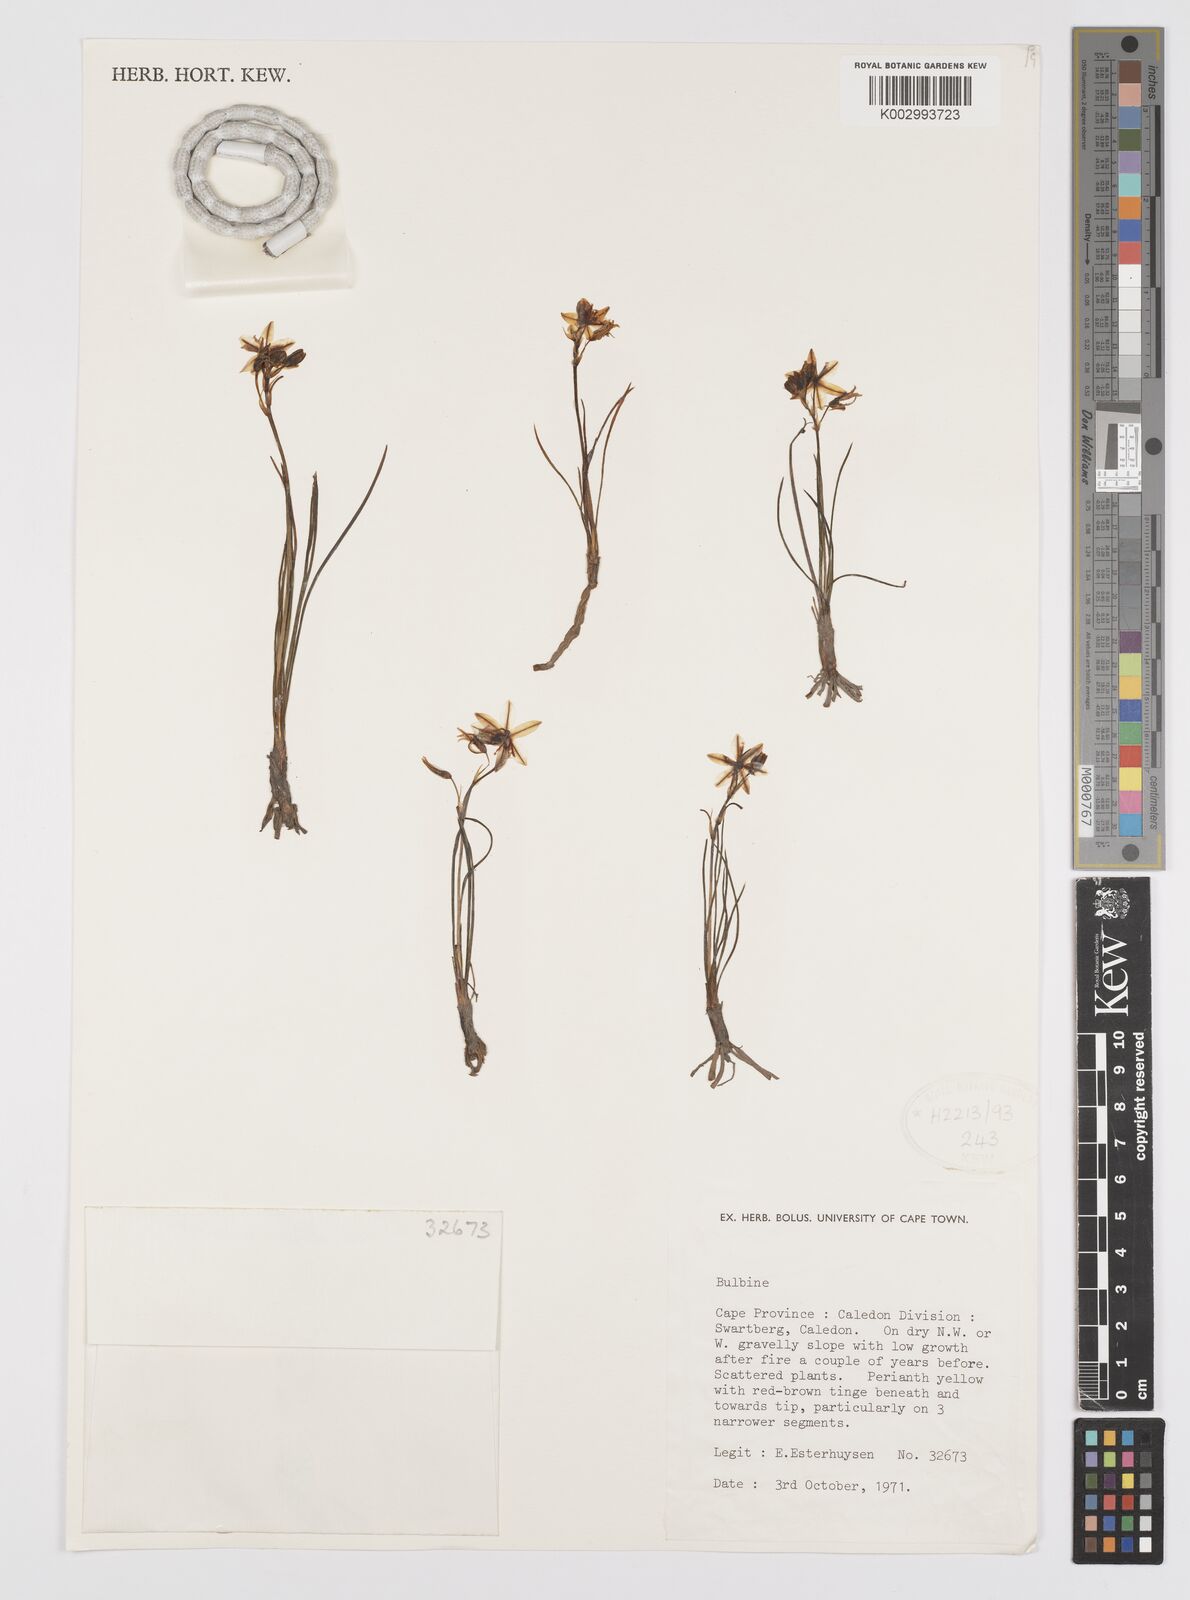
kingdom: Plantae
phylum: Tracheophyta
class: Liliopsida
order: Asparagales
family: Amaryllidaceae
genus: Crinum
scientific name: Crinum
